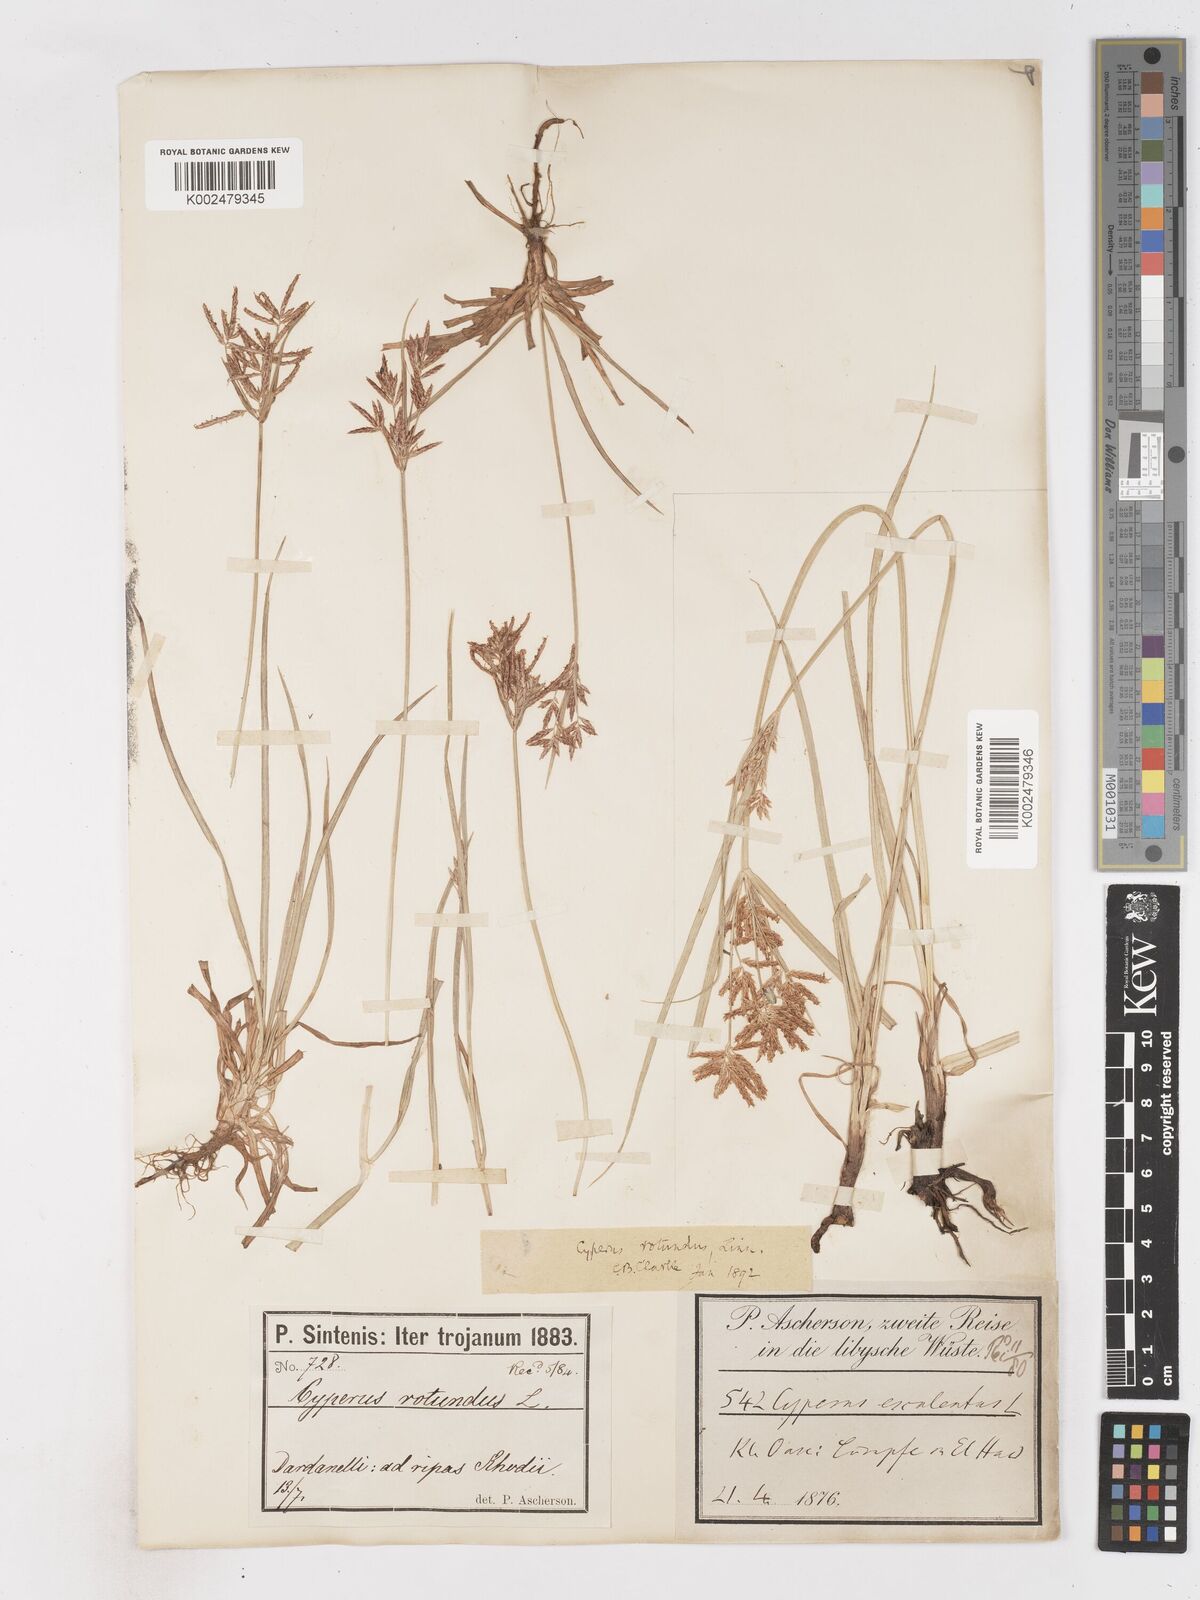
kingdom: Plantae
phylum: Tracheophyta
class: Liliopsida
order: Poales
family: Cyperaceae
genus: Cyperus
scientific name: Cyperus rotundus
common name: Nutgrass
